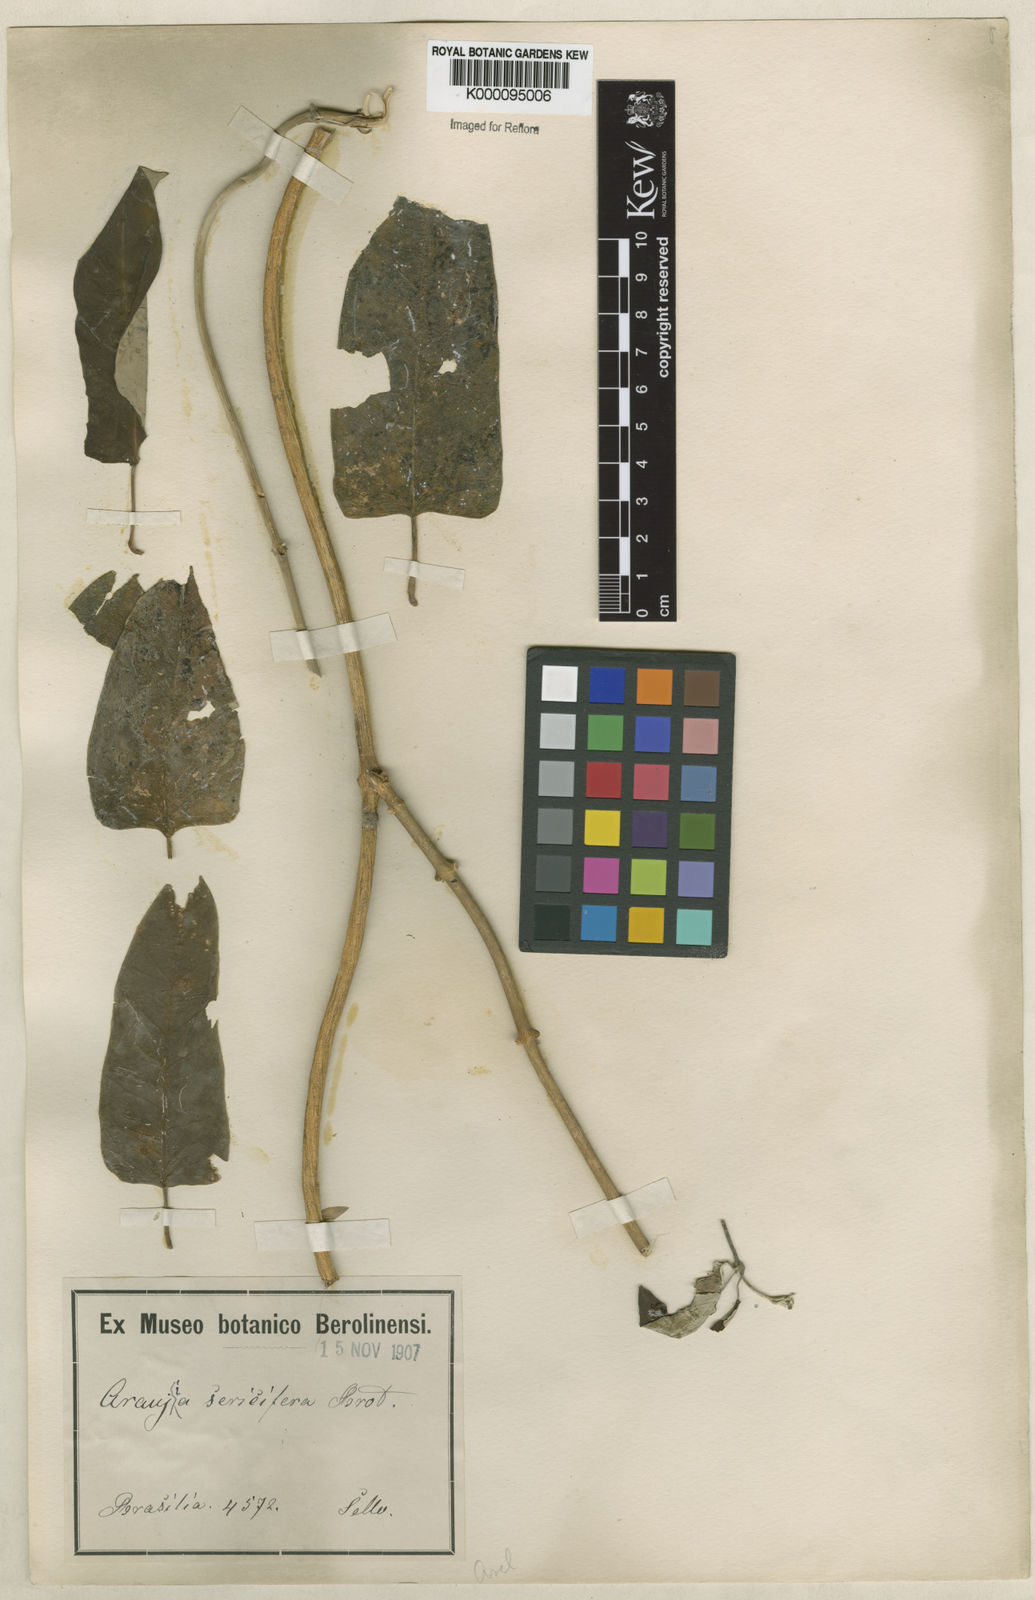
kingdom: Plantae
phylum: Tracheophyta
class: Magnoliopsida
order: Gentianales
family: Apocynaceae
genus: Araujia
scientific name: Araujia sericifera
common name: White bladderflower
